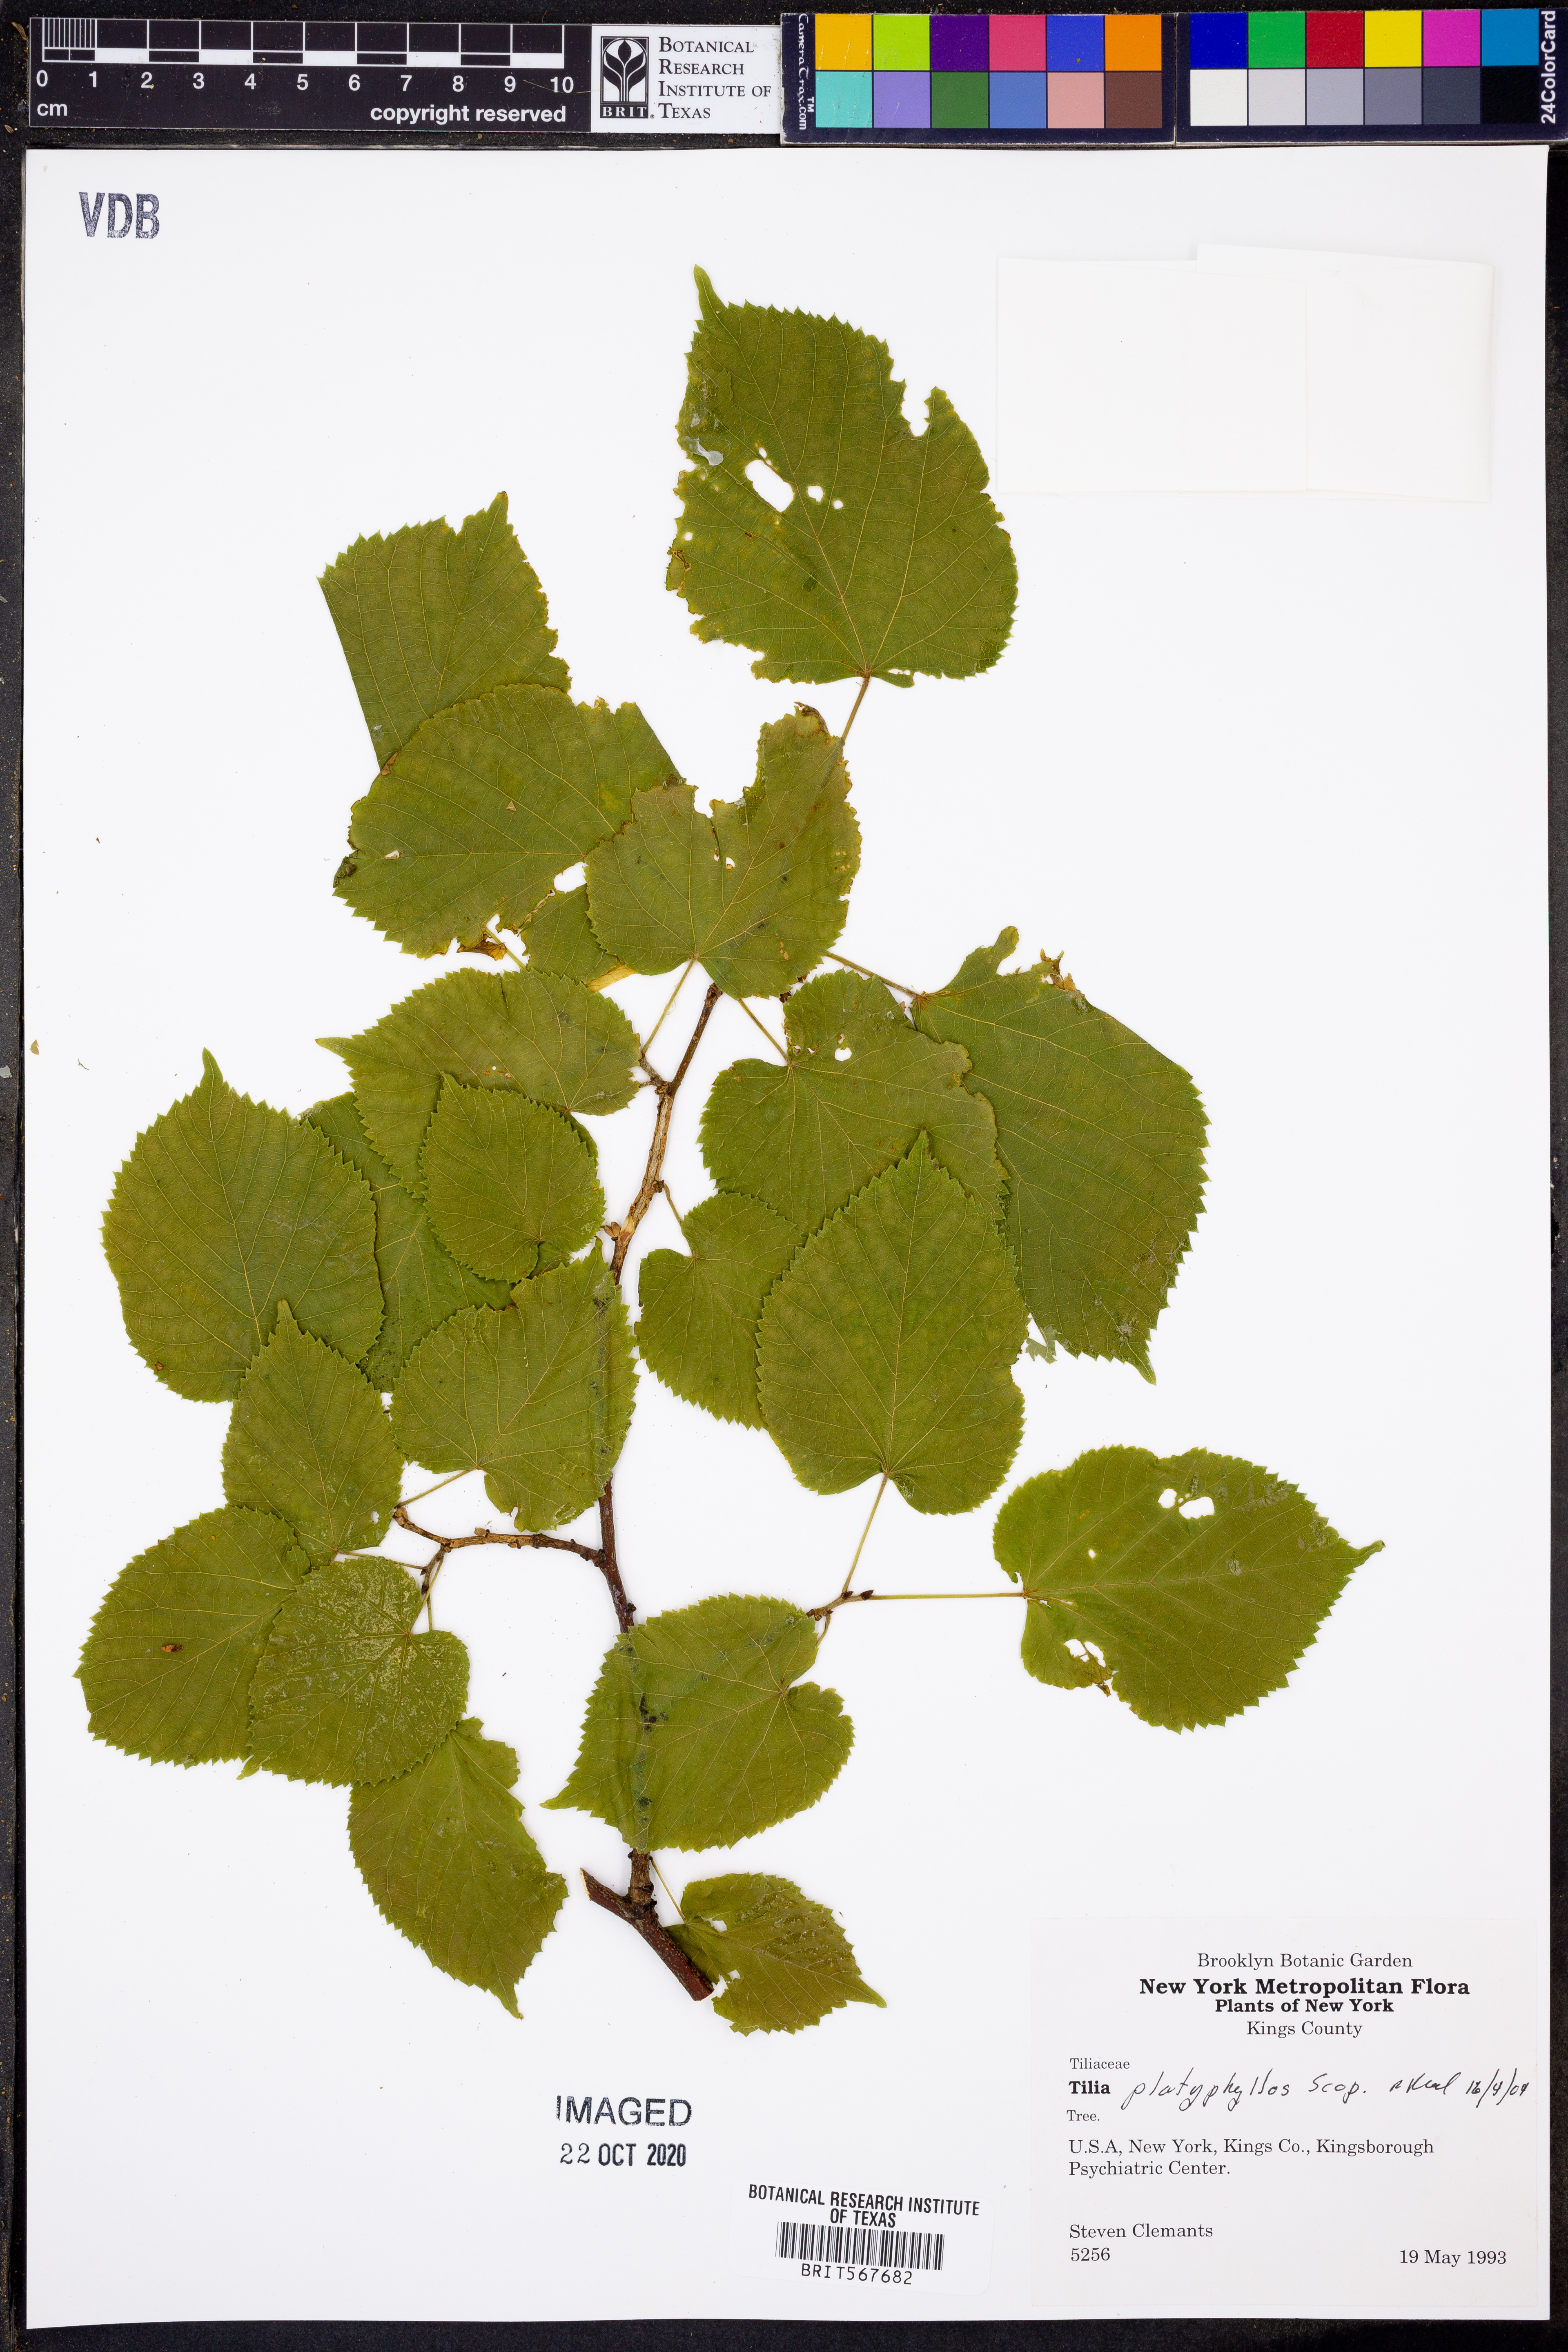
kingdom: Plantae
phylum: Tracheophyta
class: Magnoliopsida
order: Malvales
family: Malvaceae
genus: Tilia
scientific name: Tilia platyphyllos
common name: Large-leaved lime
